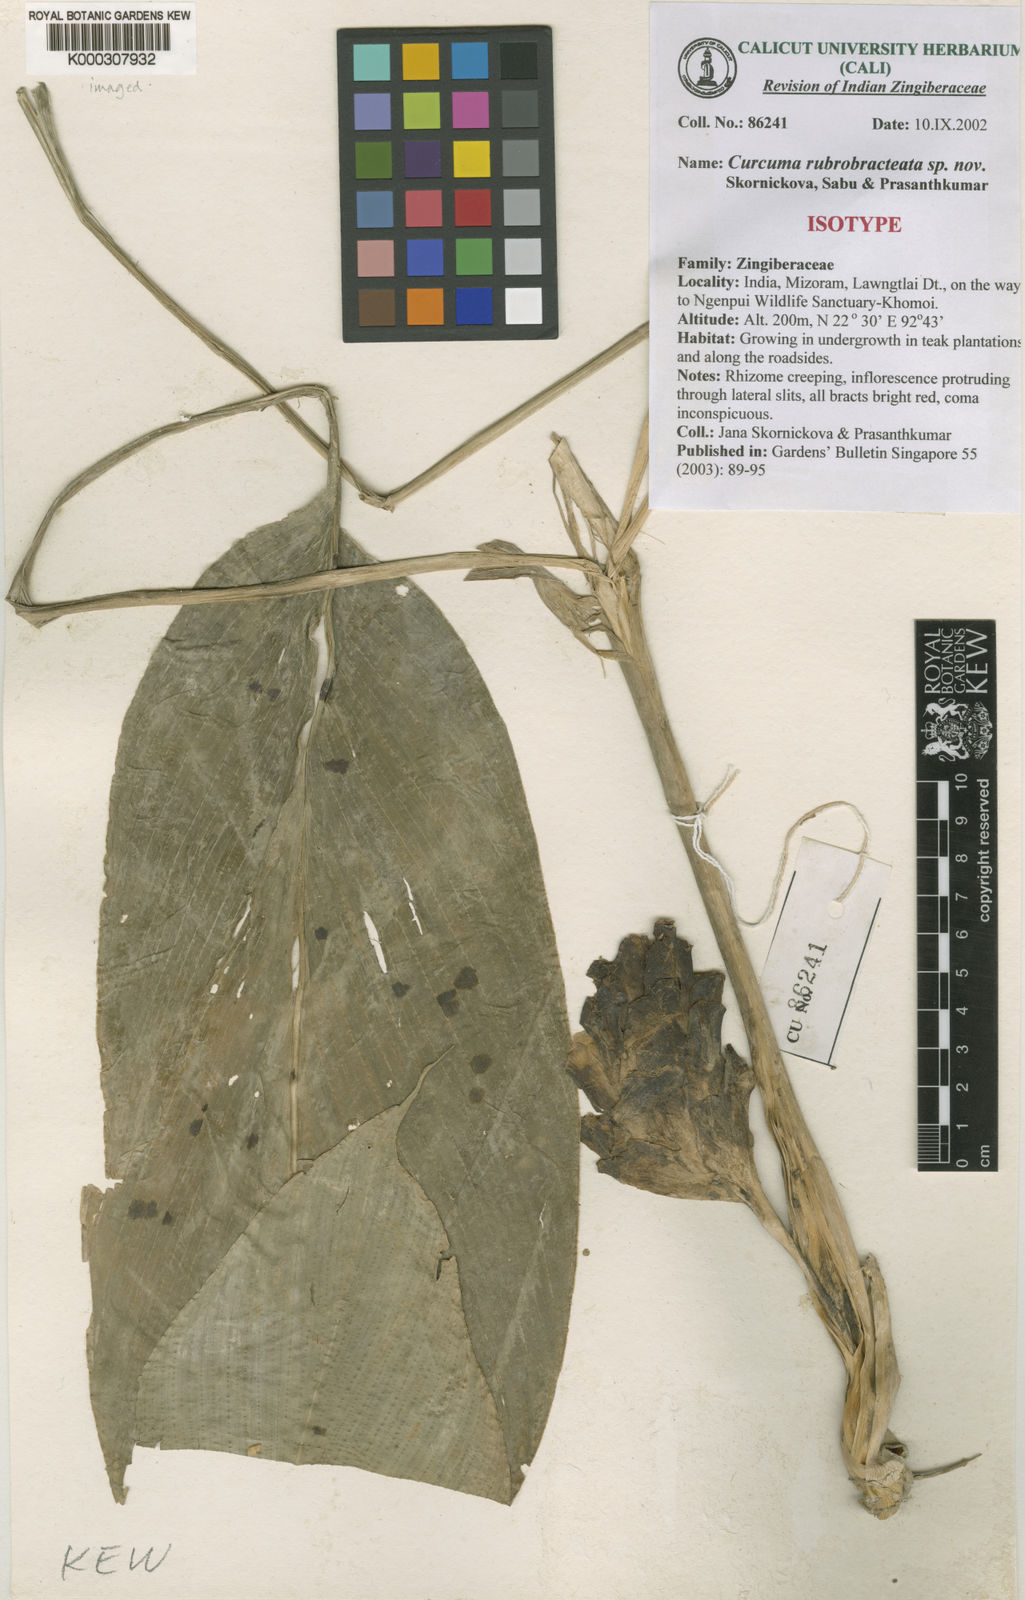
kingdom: Plantae
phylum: Tracheophyta
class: Liliopsida
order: Zingiberales
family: Zingiberaceae
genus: Curcuma
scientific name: Curcuma
